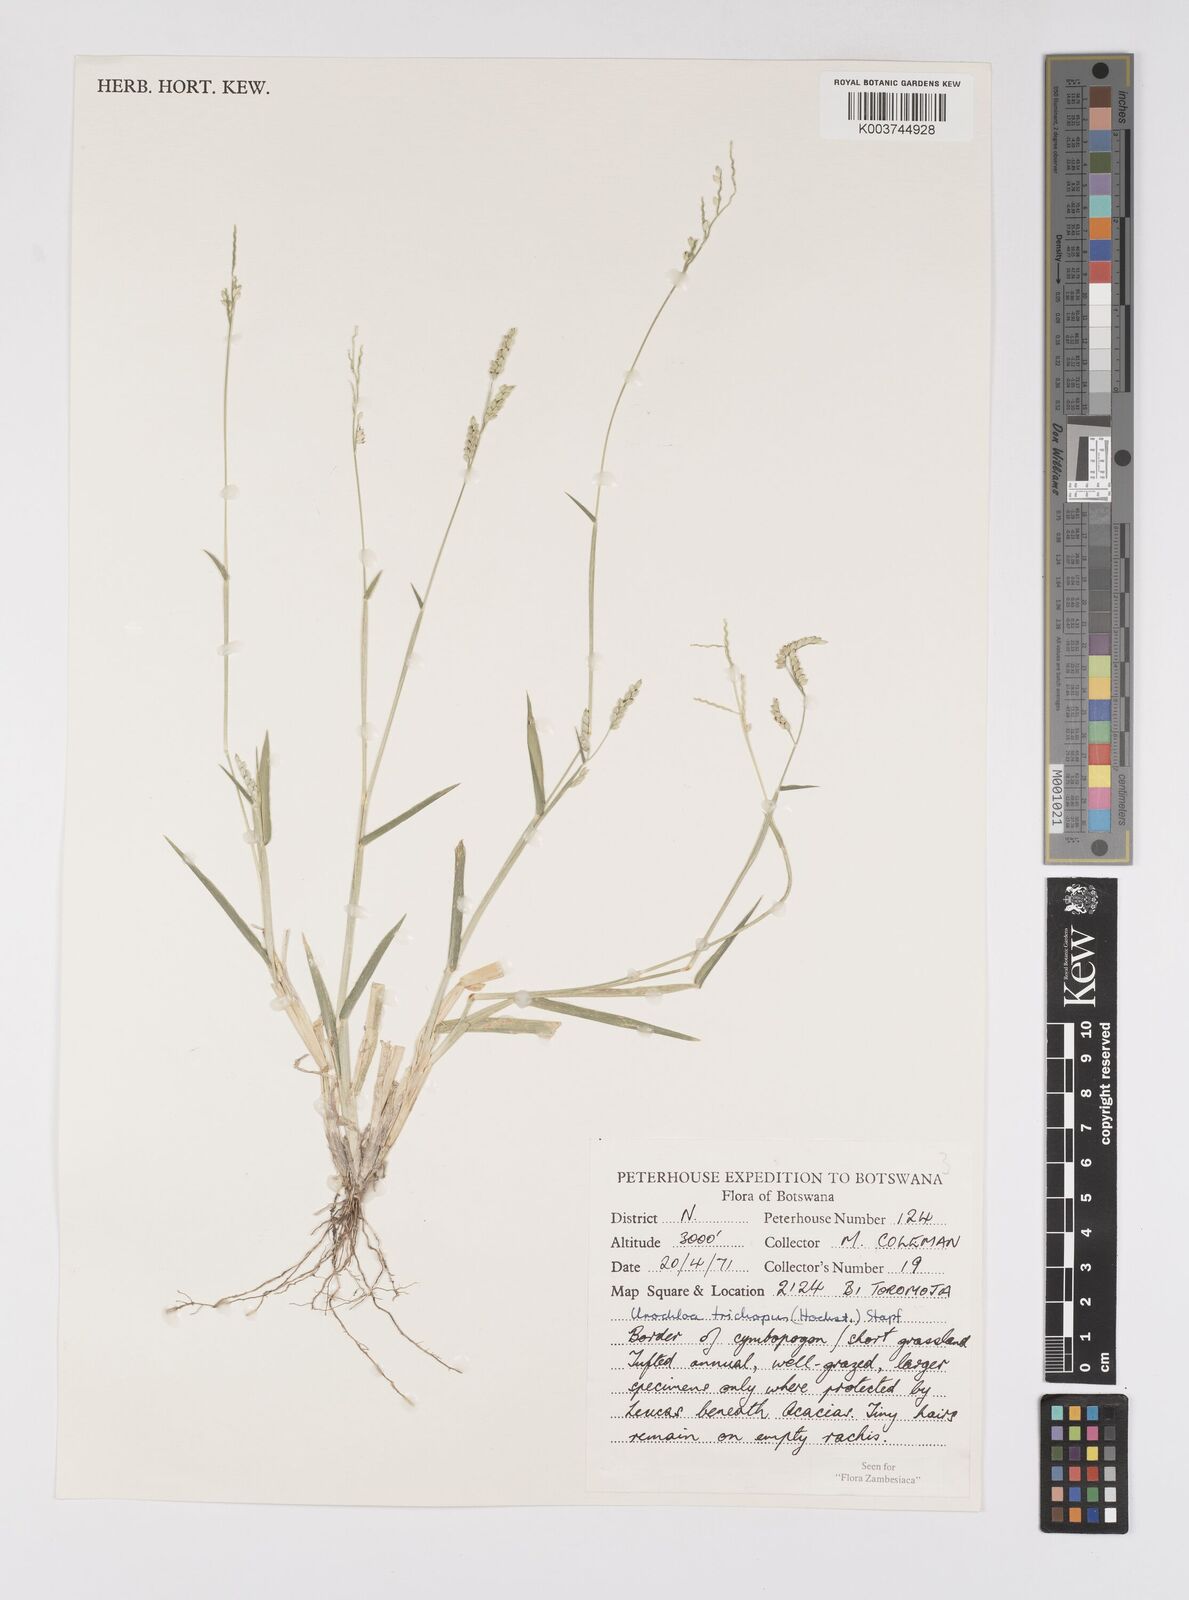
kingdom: Plantae
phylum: Tracheophyta
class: Liliopsida
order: Poales
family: Poaceae
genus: Urochloa
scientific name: Urochloa trichopus
